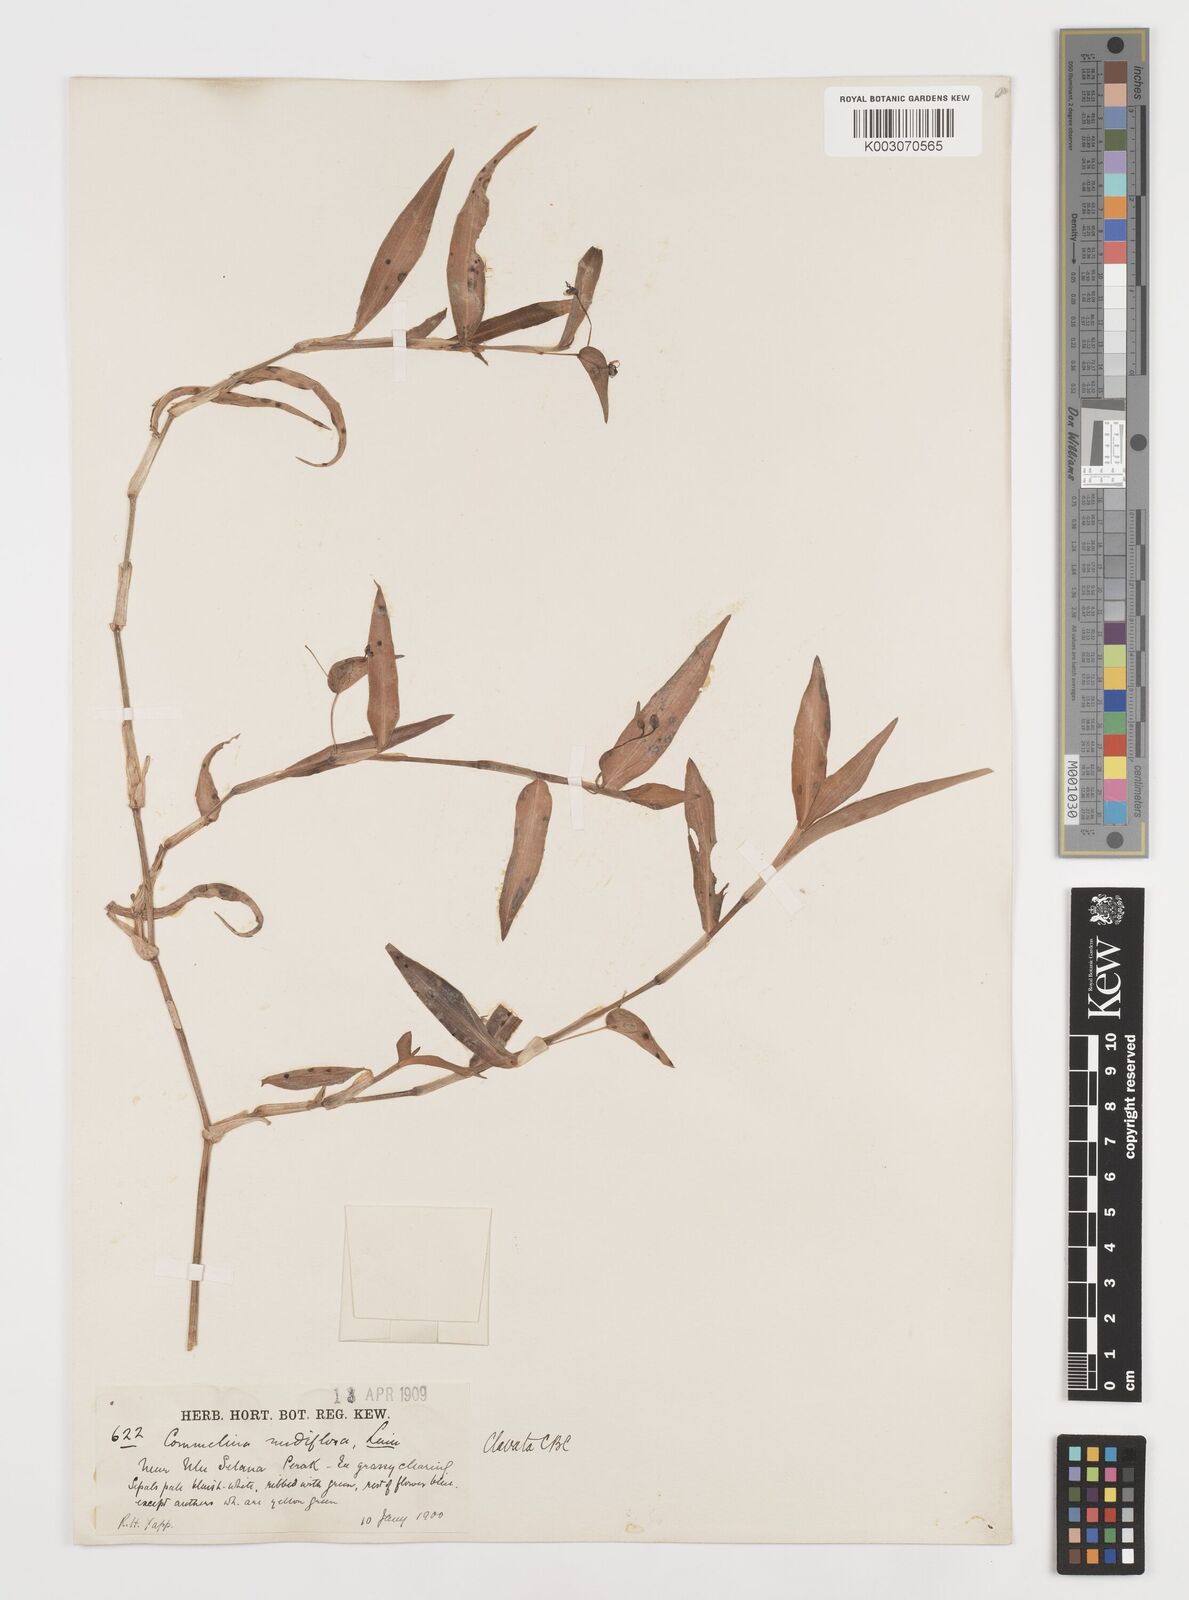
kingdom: Plantae
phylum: Tracheophyta
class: Liliopsida
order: Commelinales
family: Commelinaceae
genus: Commelina
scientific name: Commelina clavata
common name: Willow leaved dayflower
